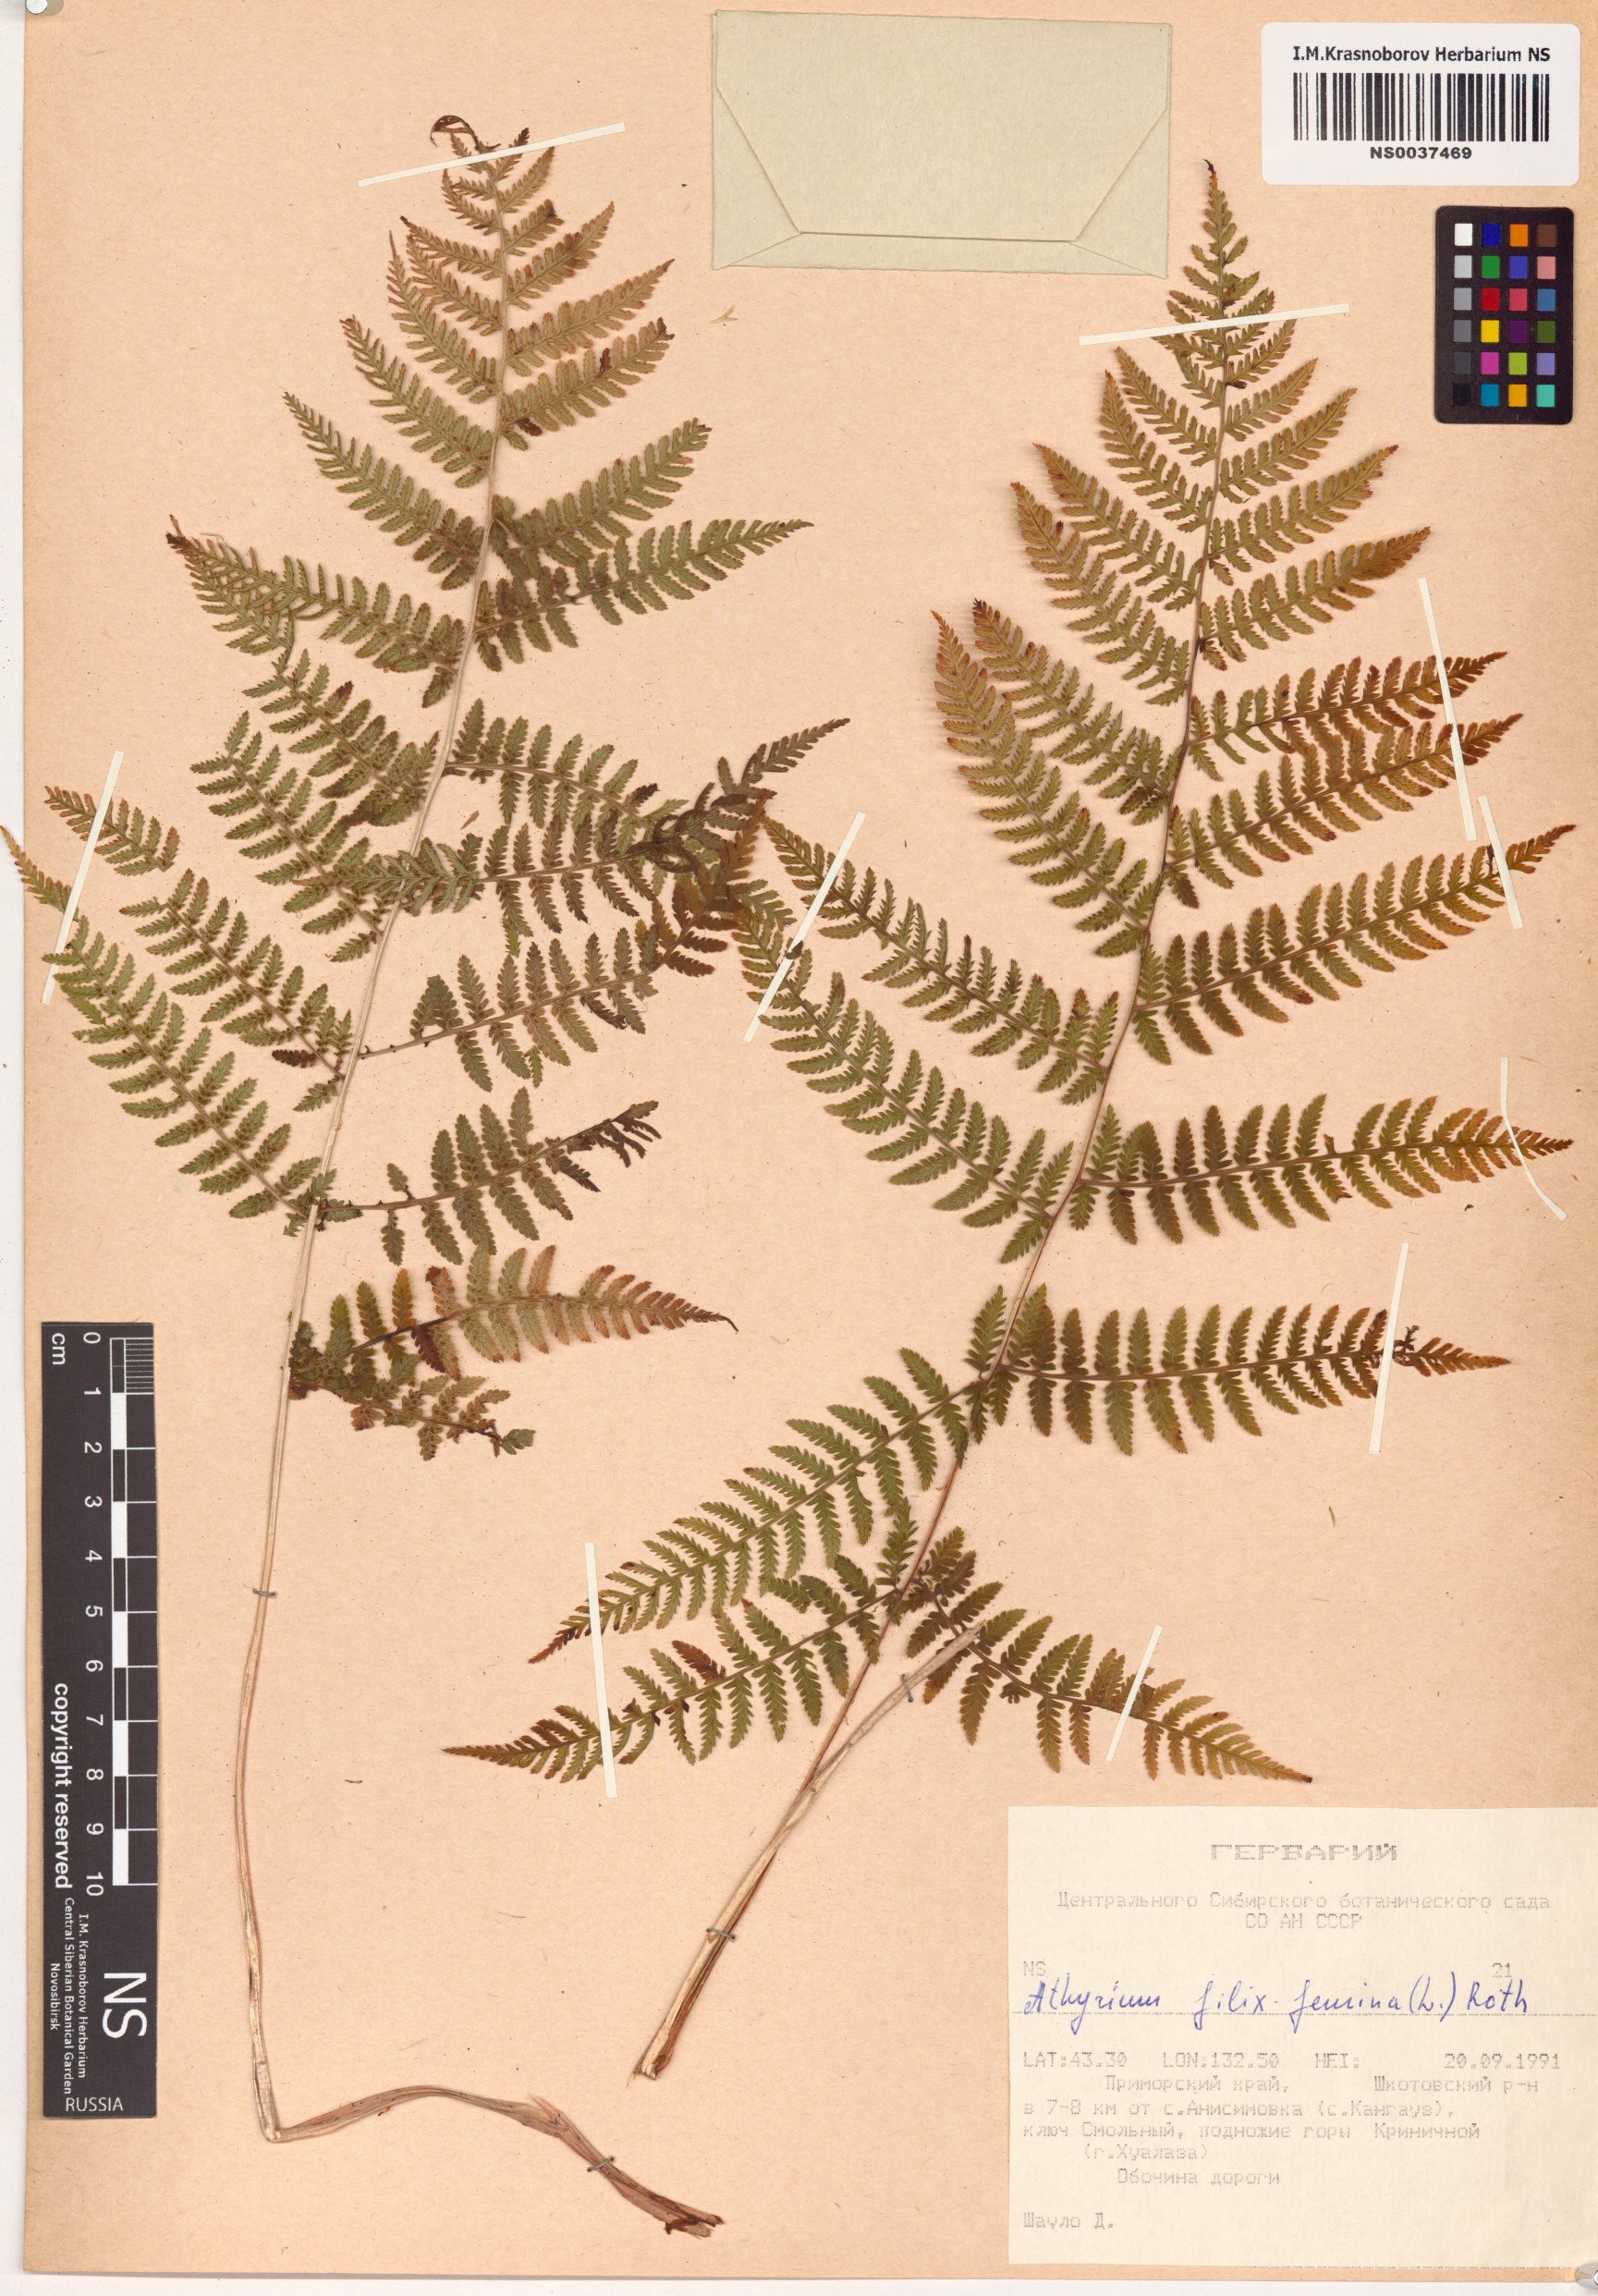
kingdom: Plantae
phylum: Tracheophyta
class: Polypodiopsida
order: Polypodiales
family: Athyriaceae
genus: Athyrium
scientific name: Athyrium filix-femina
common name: Lady fern
